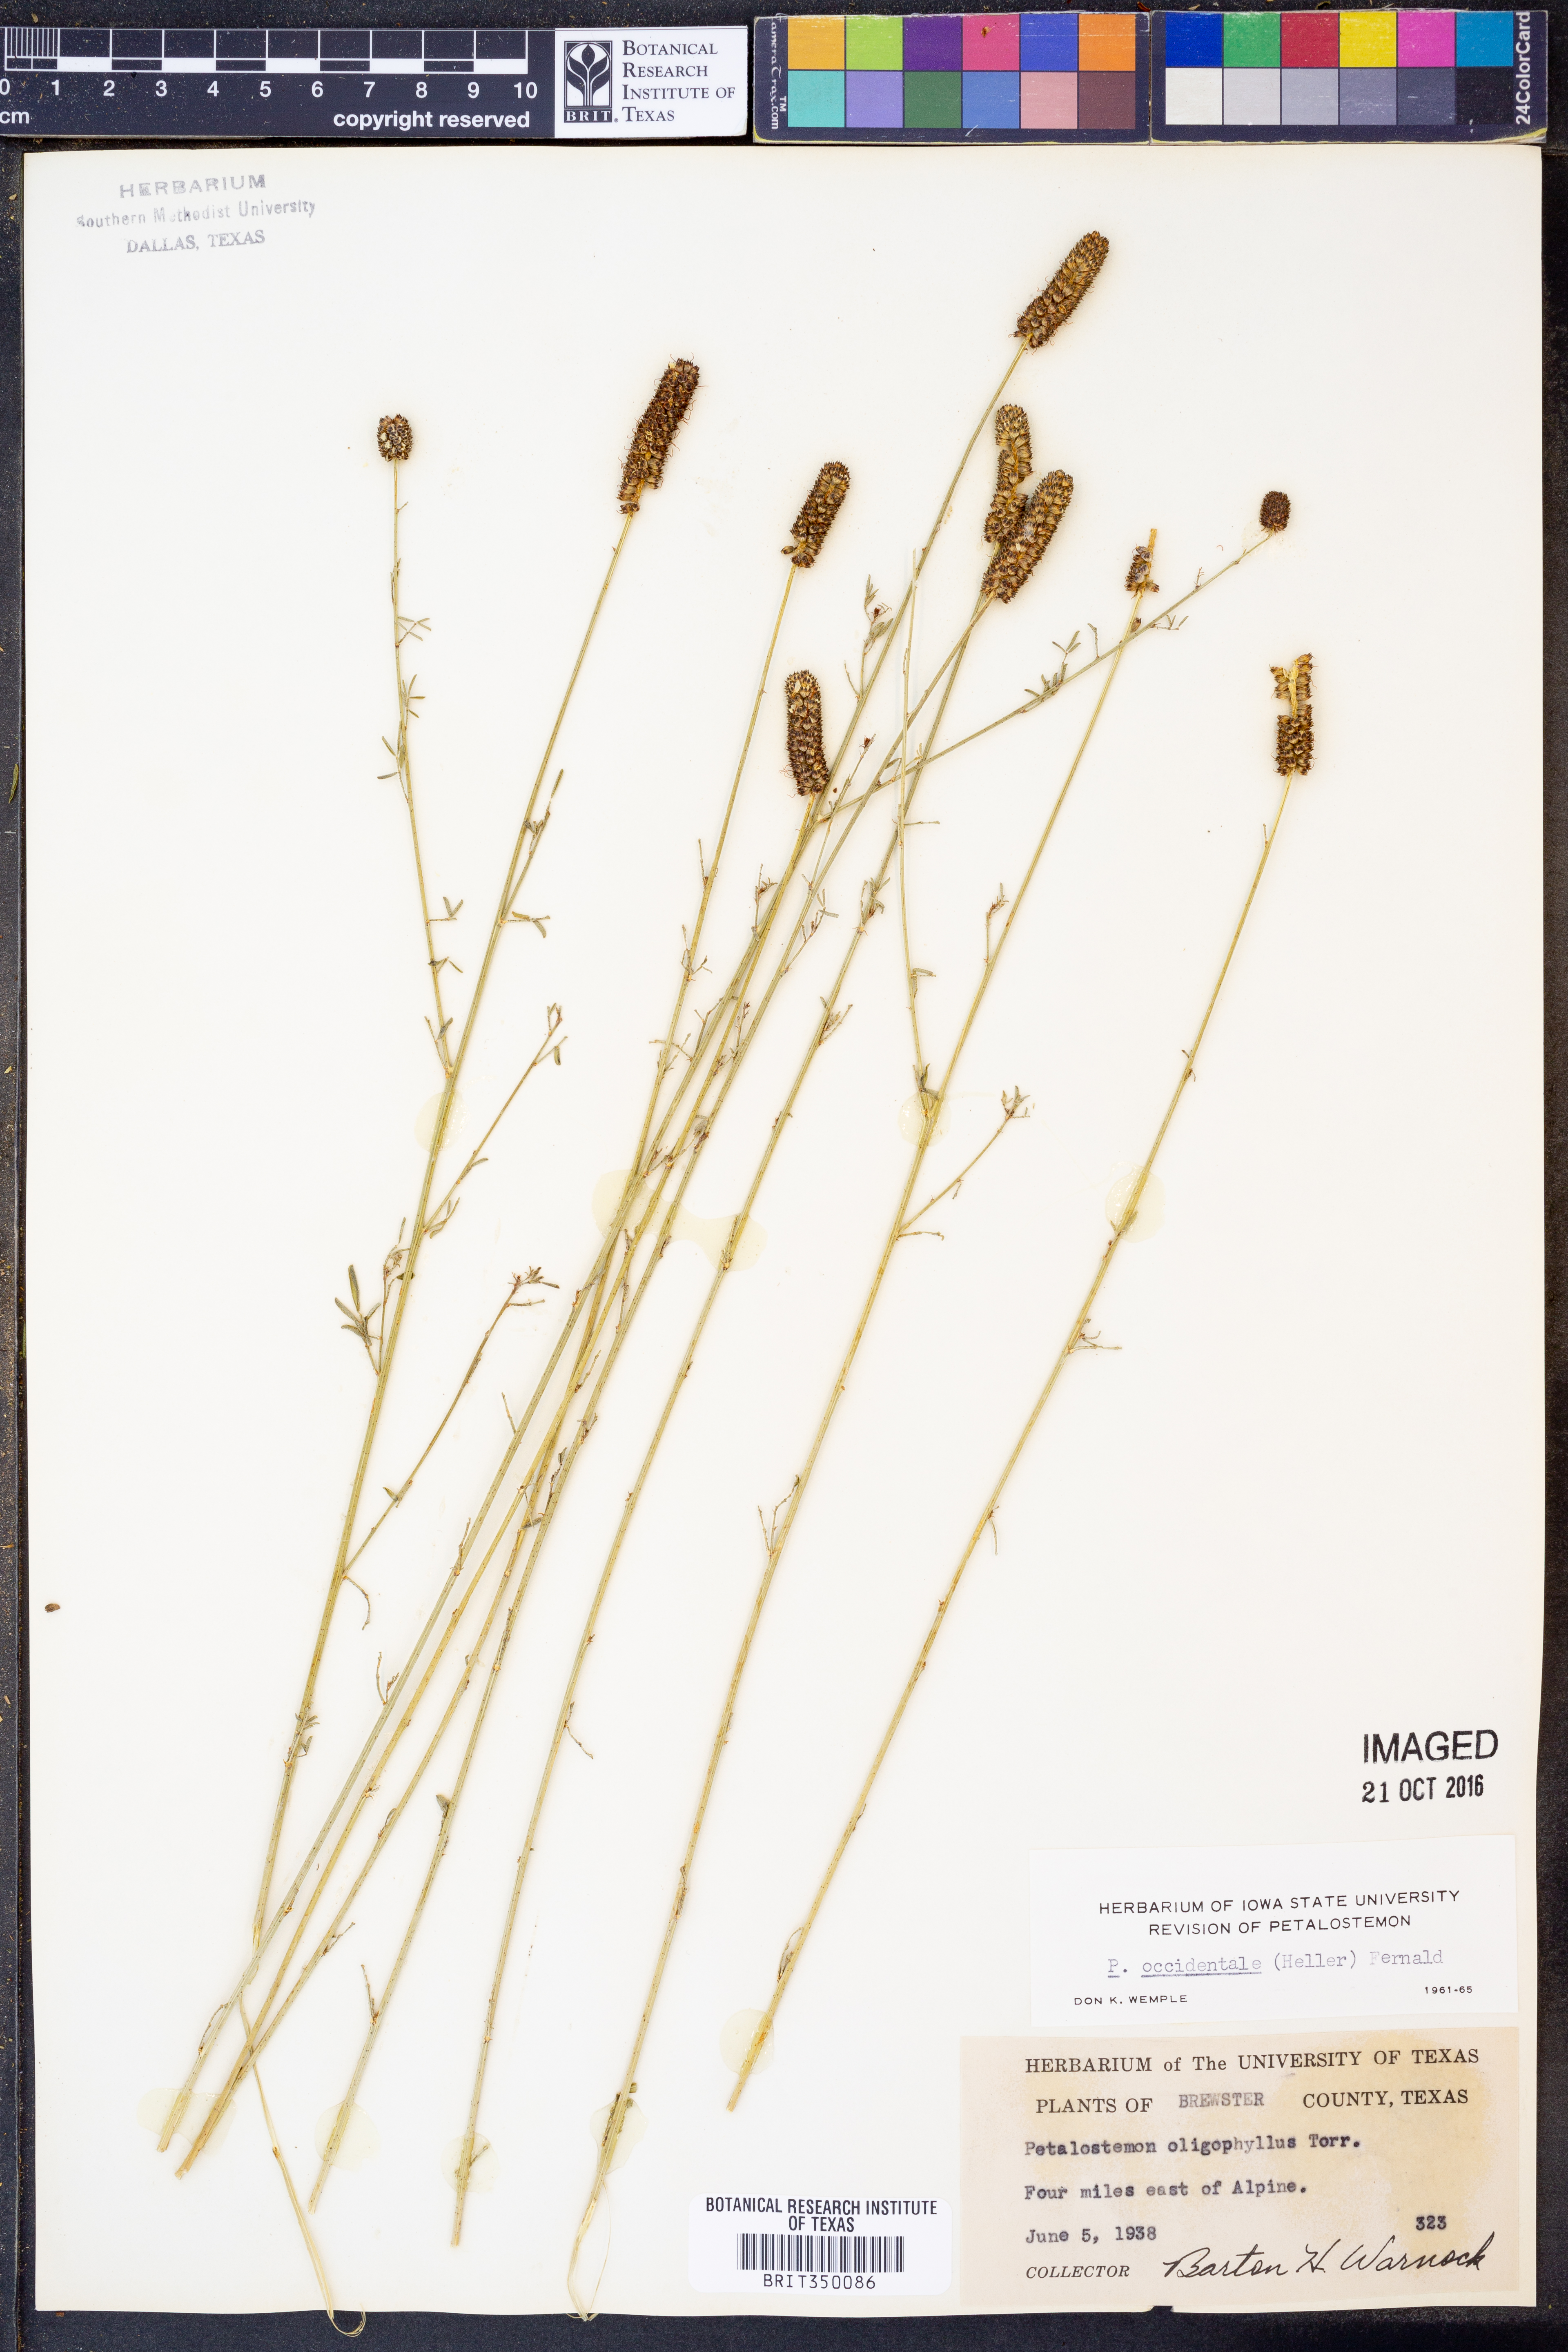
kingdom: Plantae
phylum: Tracheophyta
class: Magnoliopsida
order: Fabales
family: Fabaceae
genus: Dalea
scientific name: Dalea candida
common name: White prairie-clover
